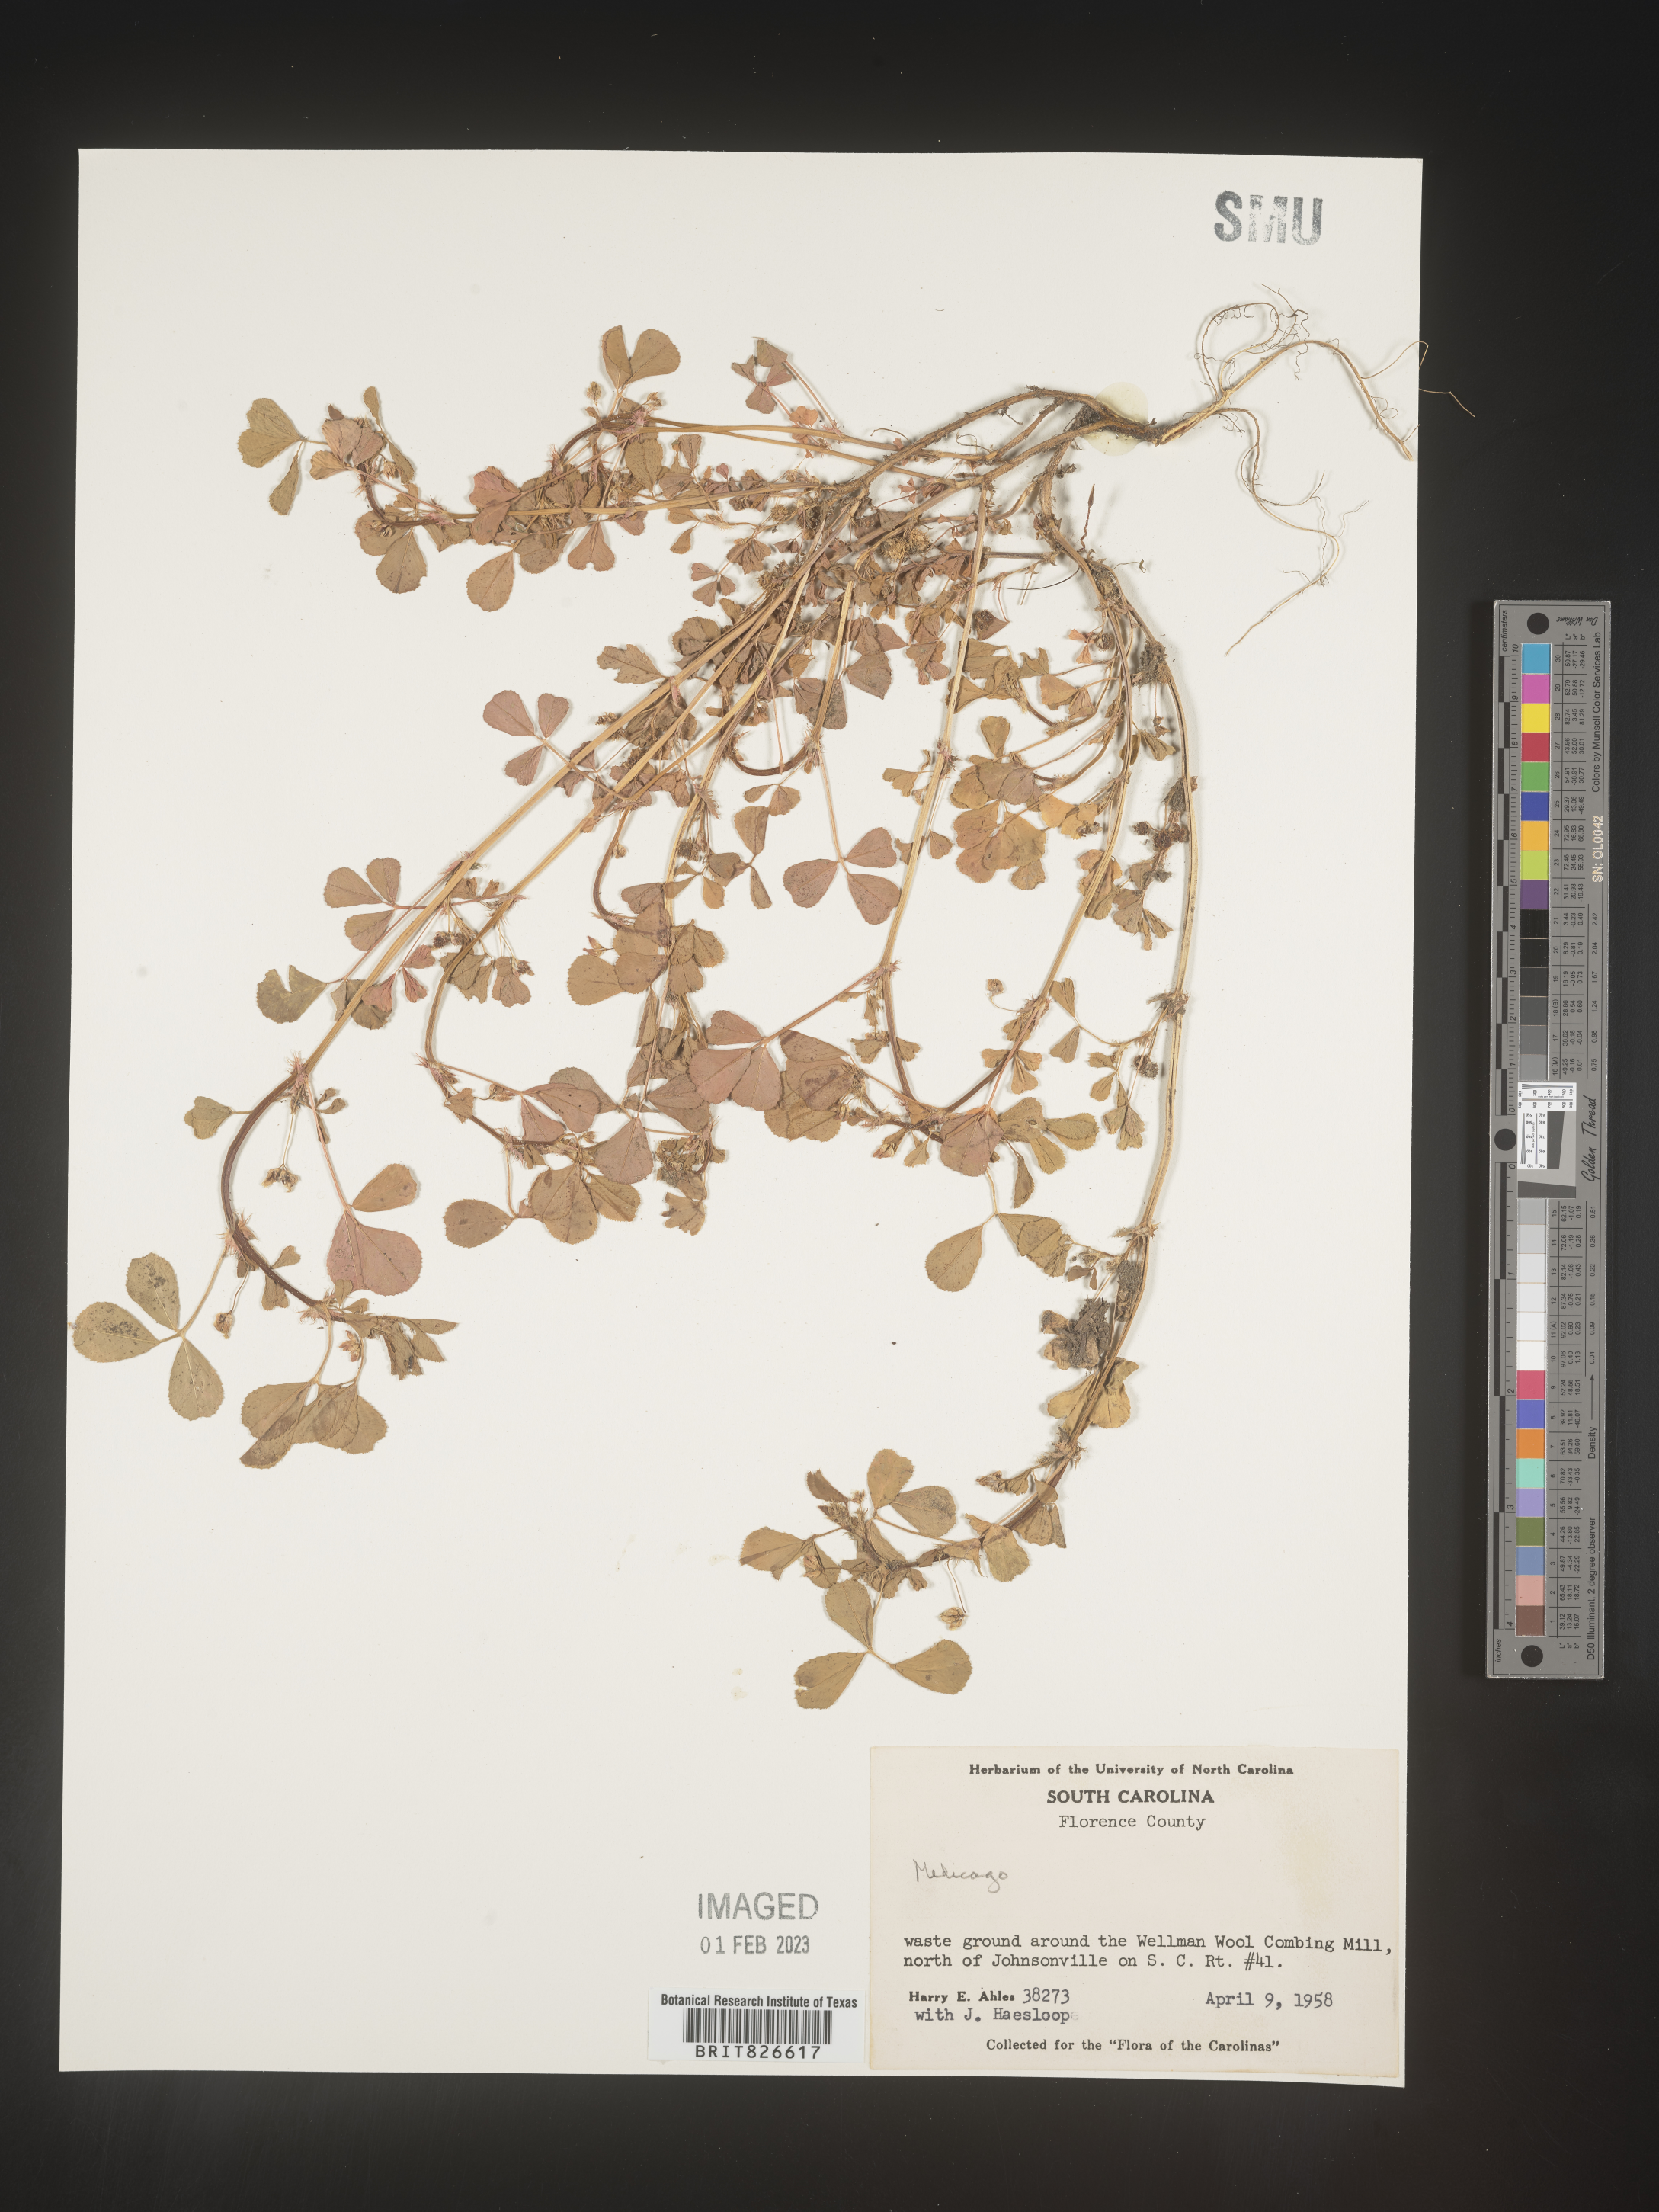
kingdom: Plantae
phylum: Tracheophyta
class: Magnoliopsida
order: Fabales
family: Fabaceae
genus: Medicago
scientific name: Medicago
